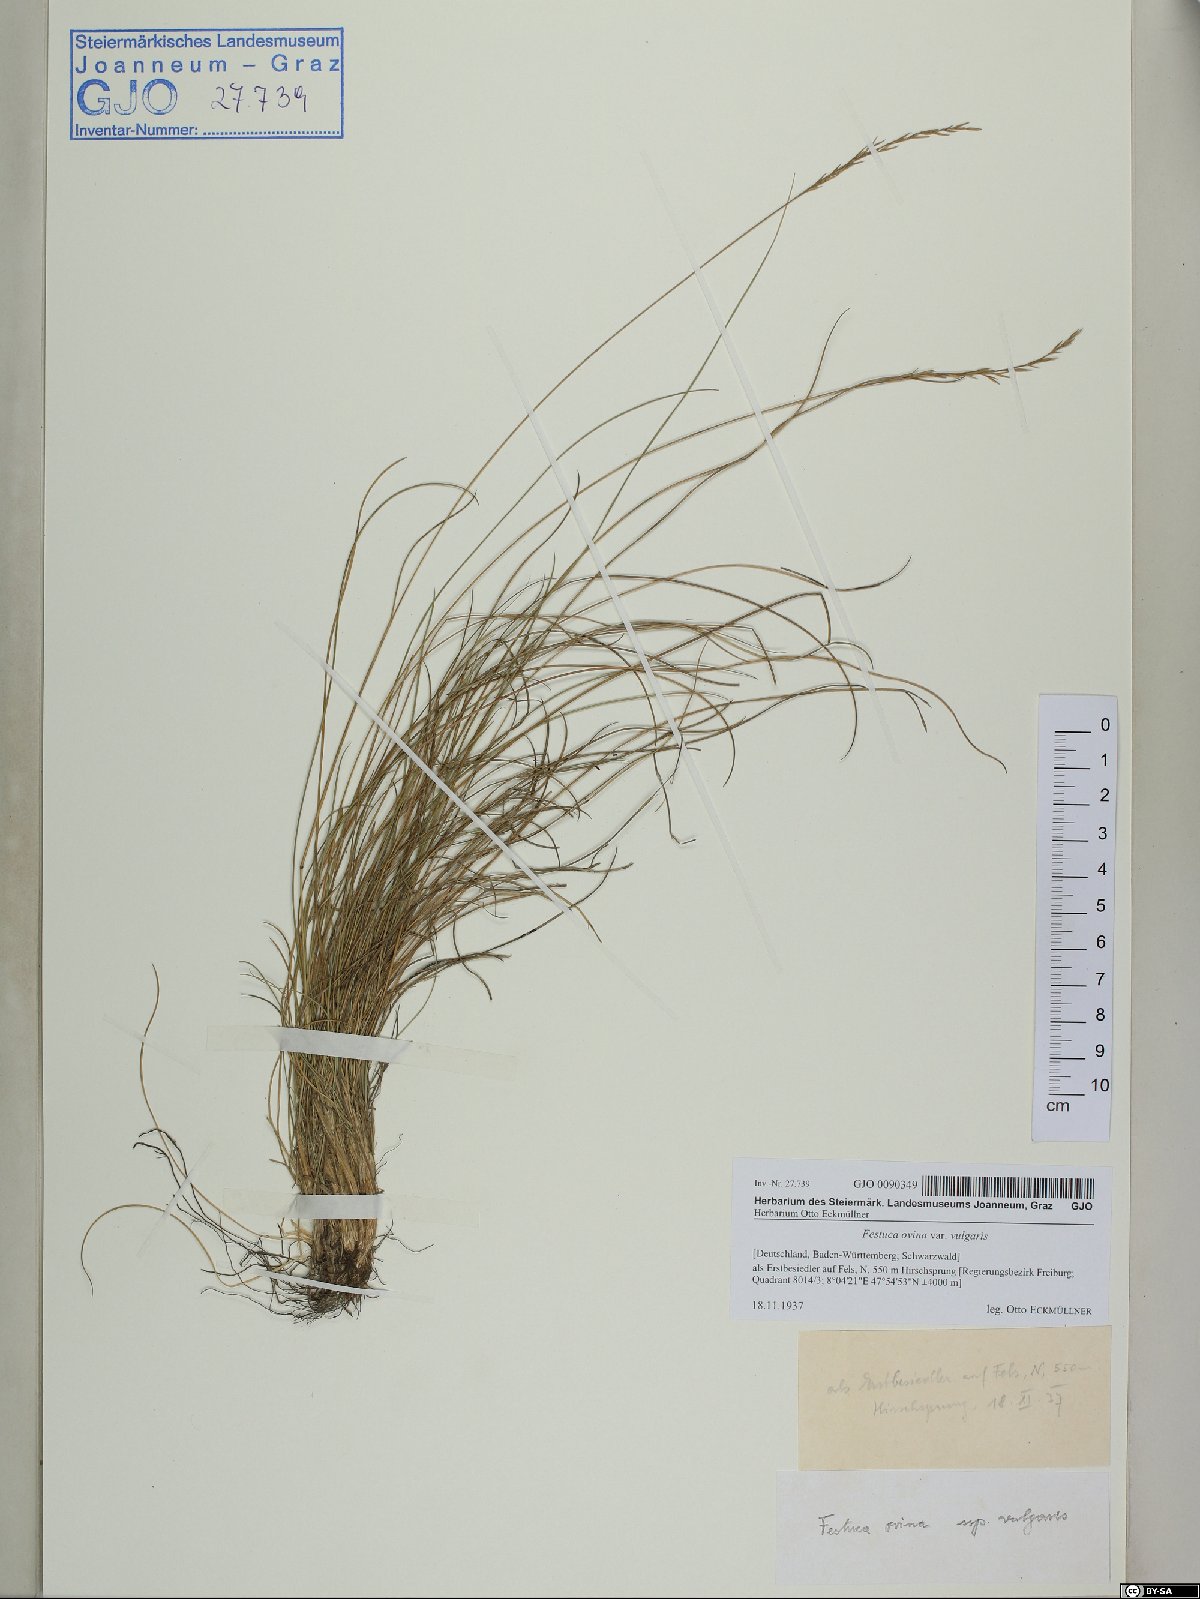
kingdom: Plantae
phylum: Tracheophyta
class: Liliopsida
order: Poales
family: Poaceae
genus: Festuca
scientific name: Festuca ovina
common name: Sheep fescue
